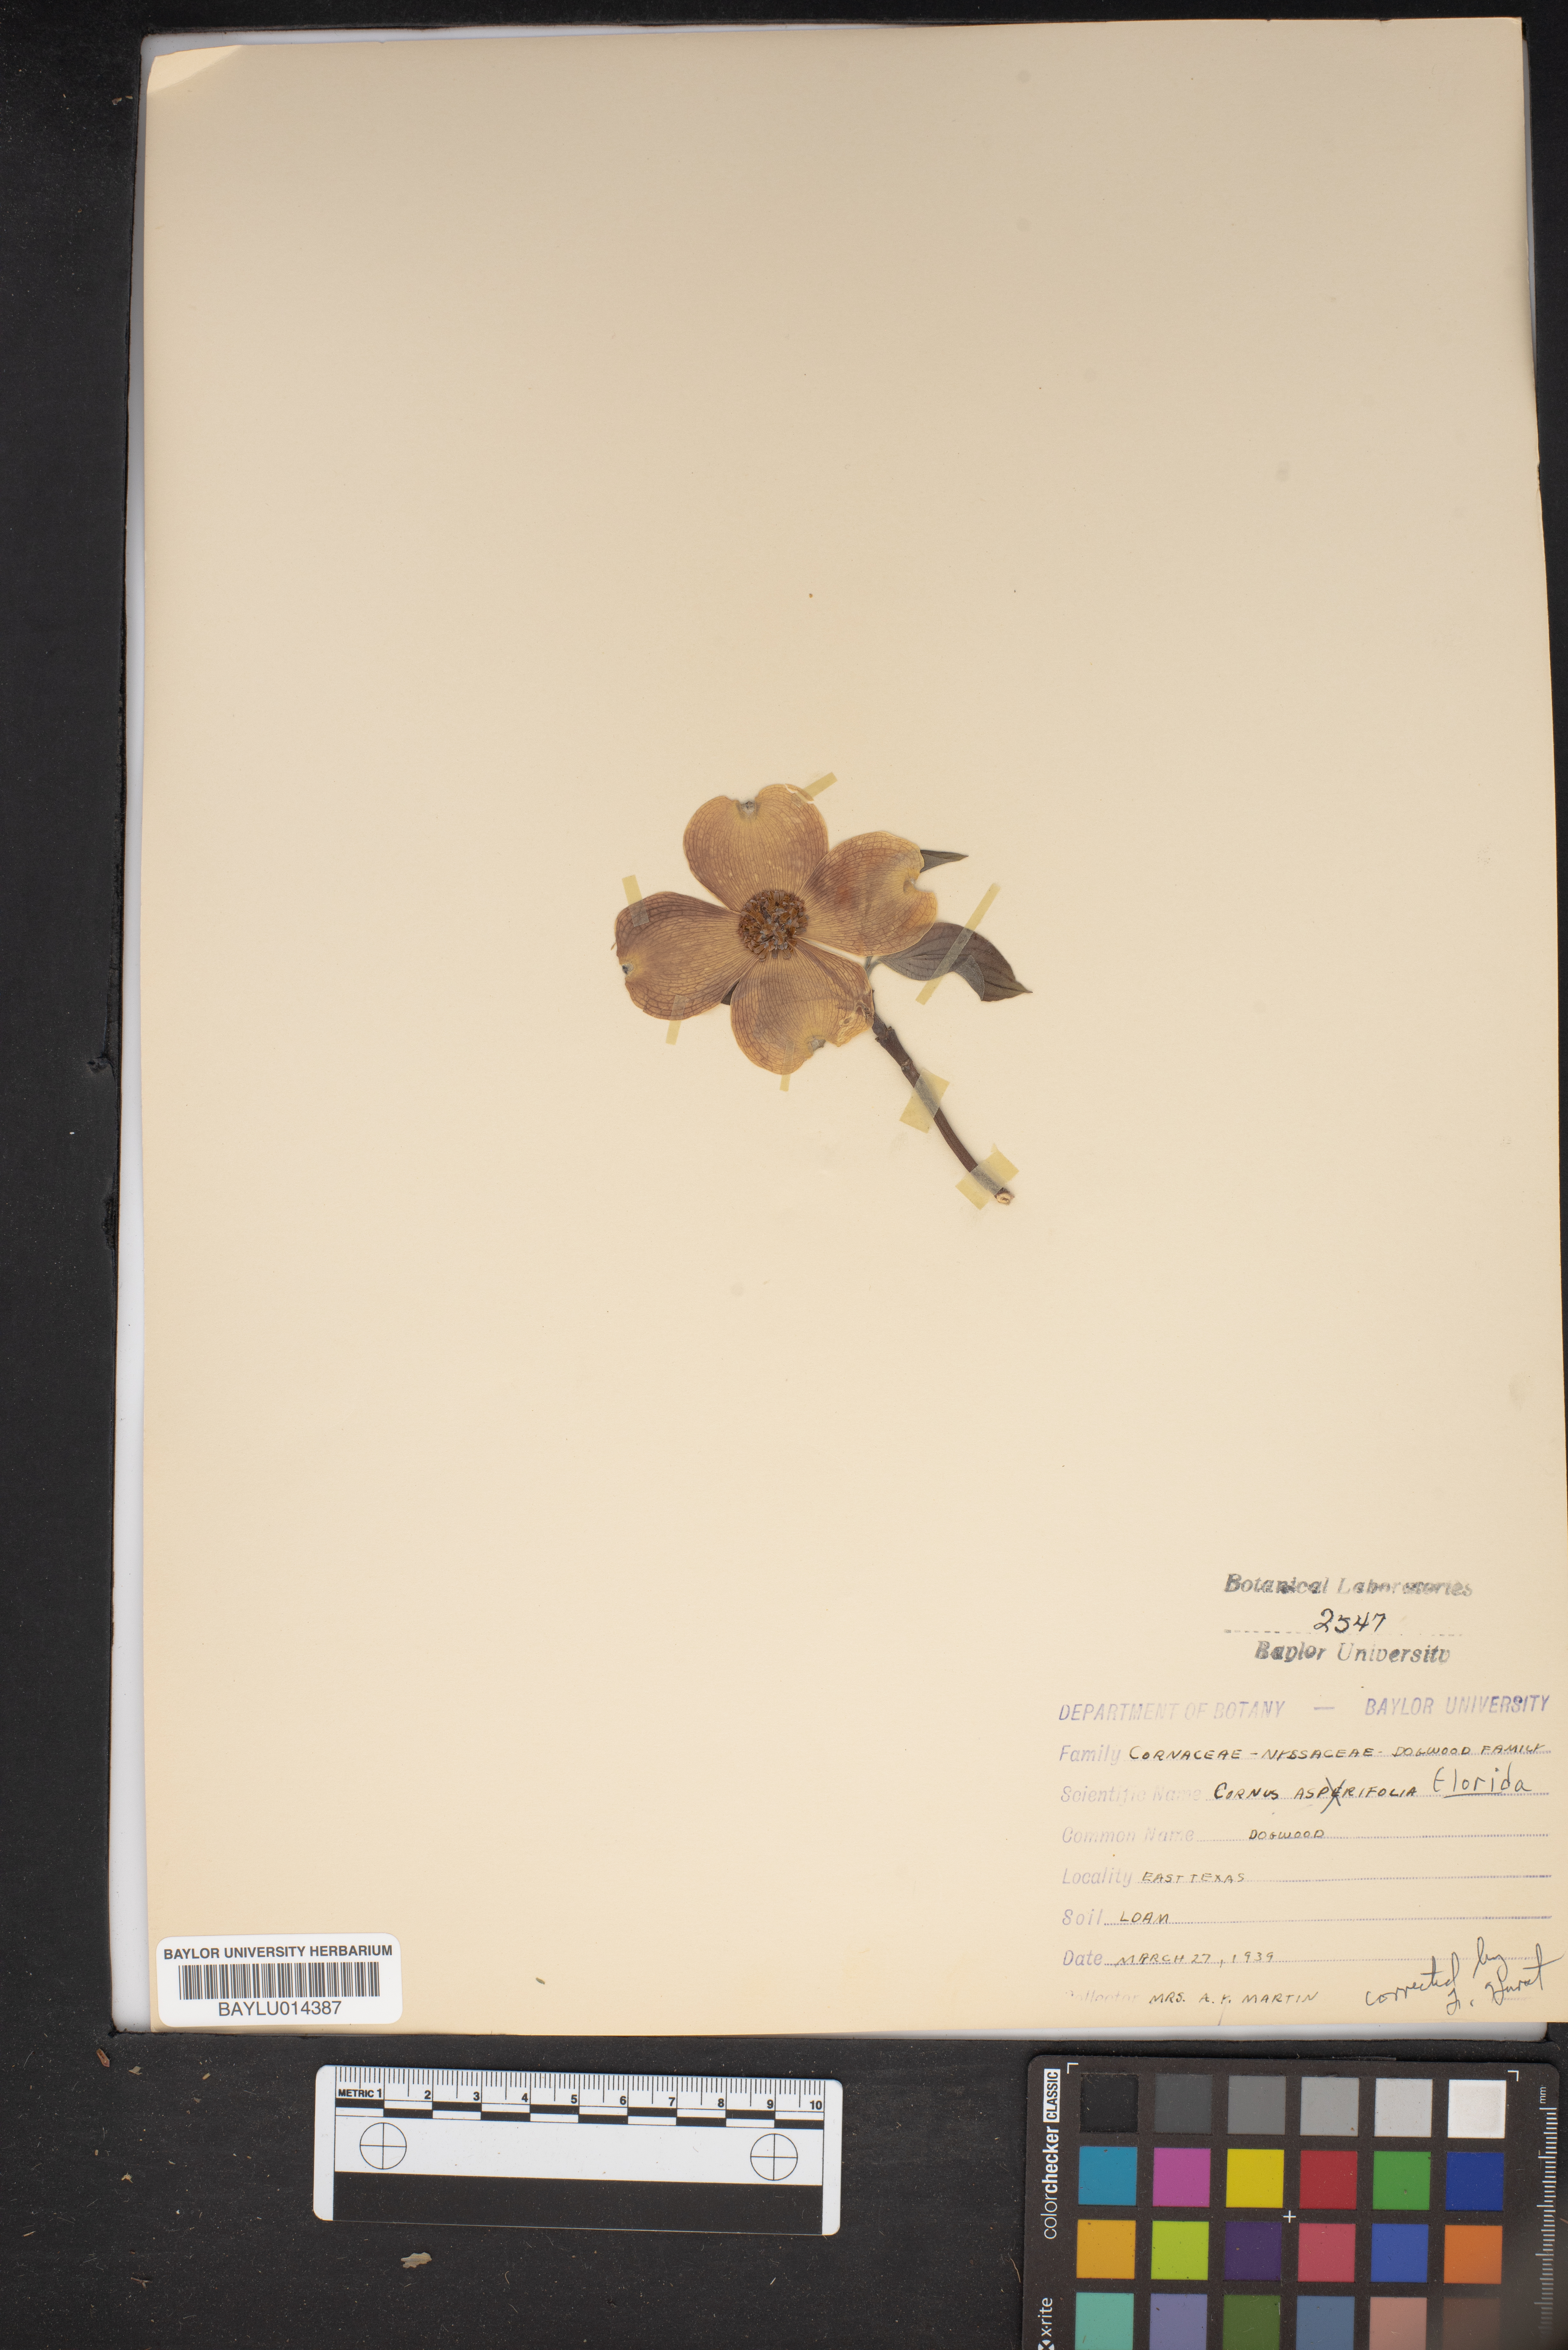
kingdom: Plantae
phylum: Tracheophyta
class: Magnoliopsida
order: Cornales
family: Cornaceae
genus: Cornus
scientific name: Cornus florida
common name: Flowering dogwood
